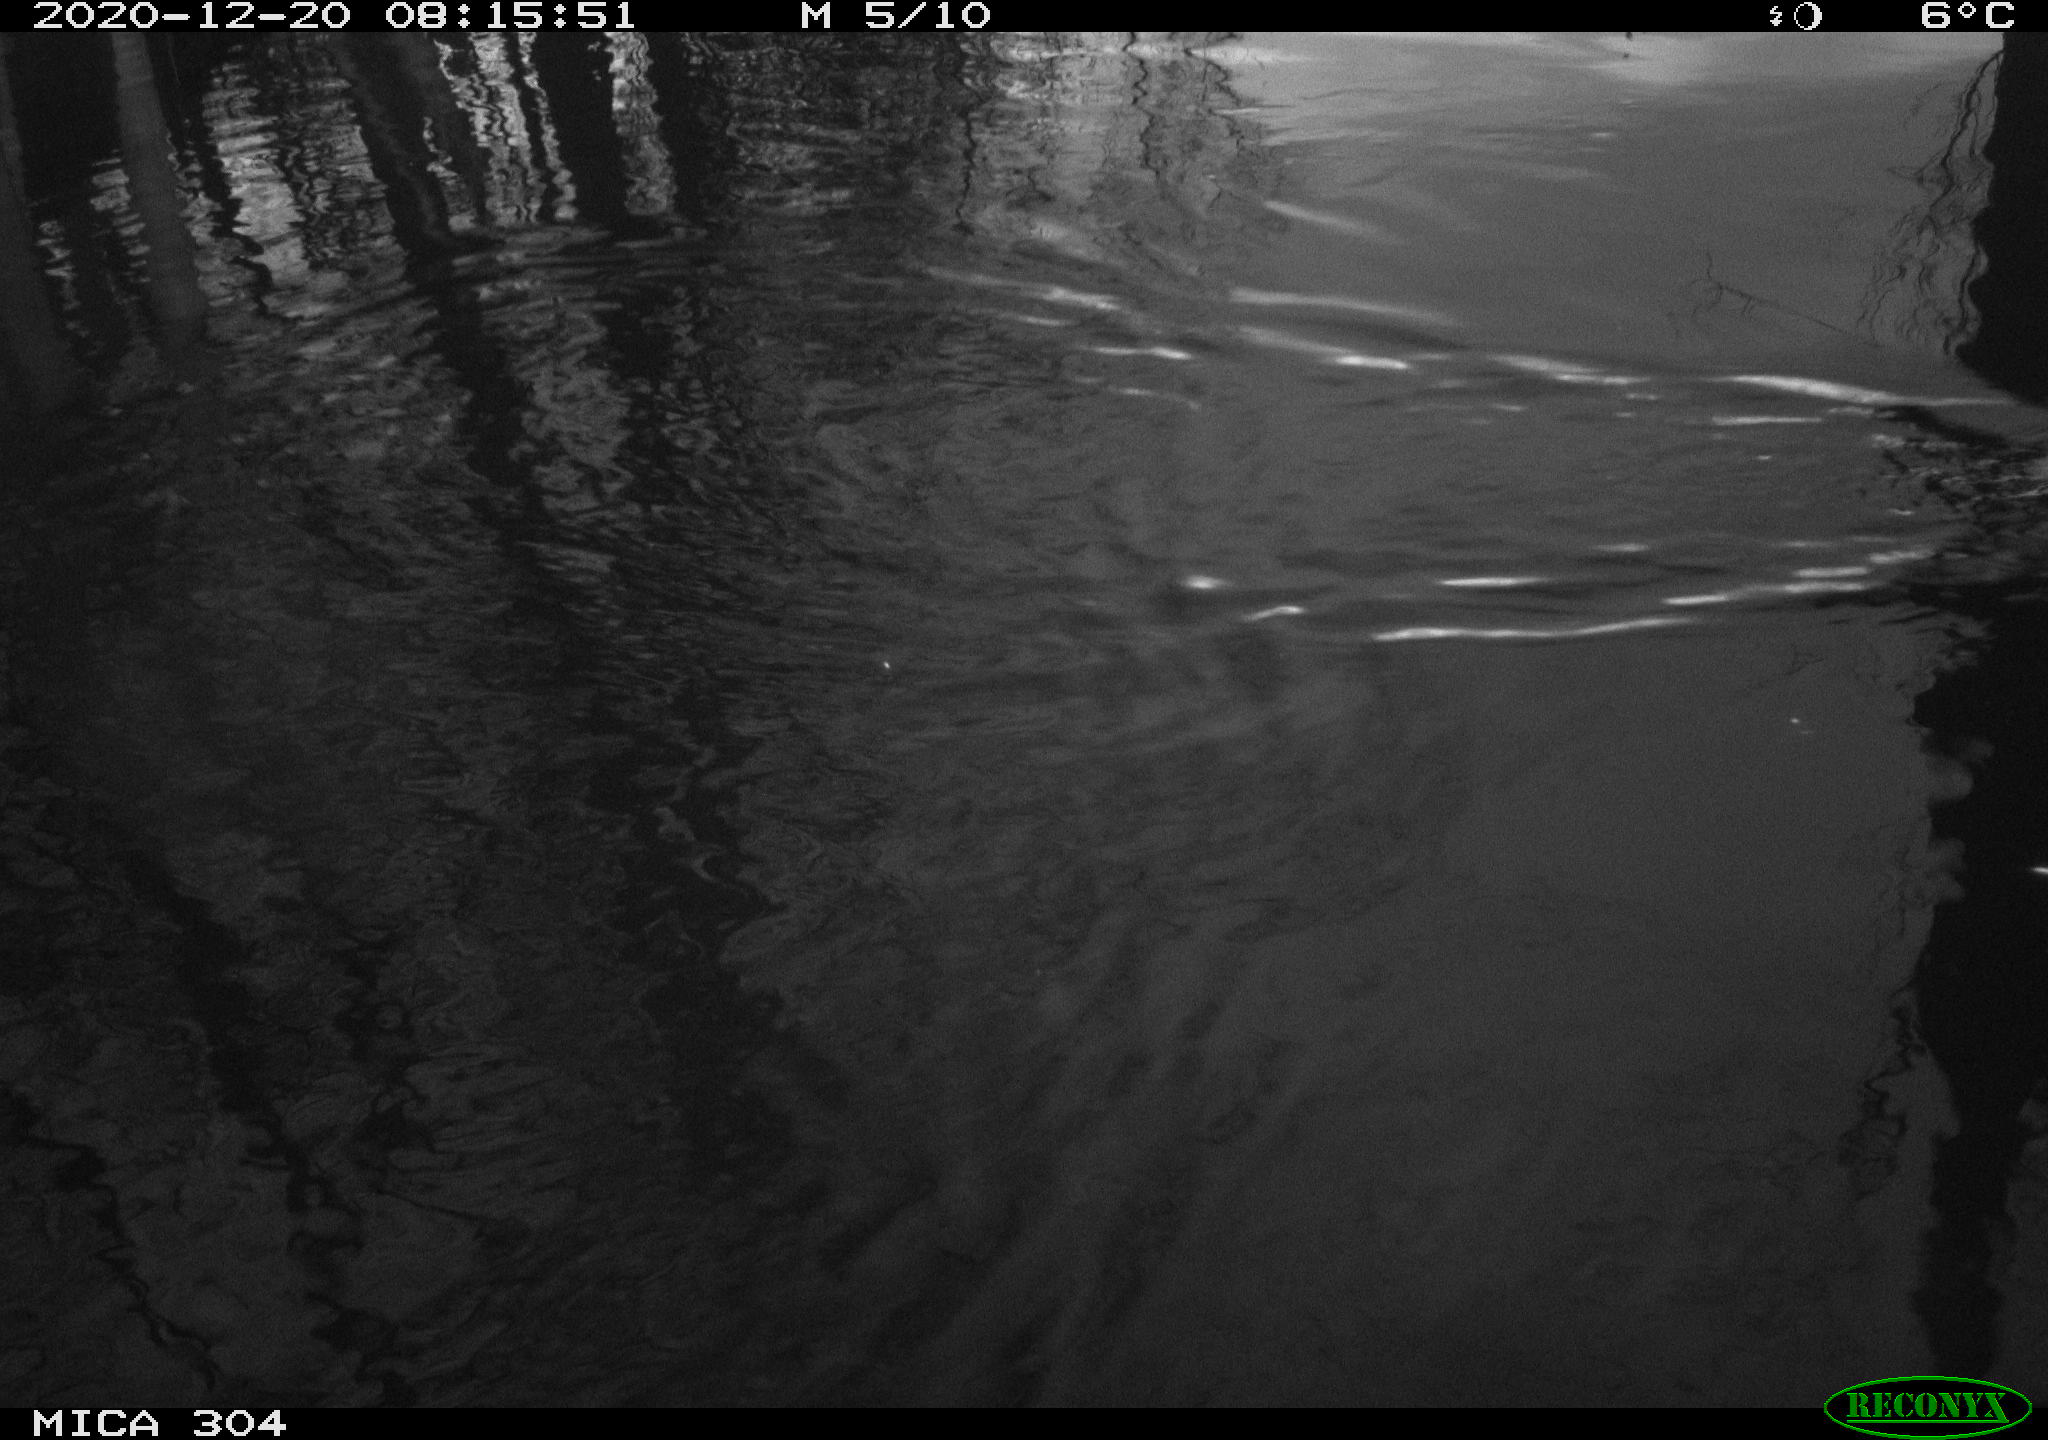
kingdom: Animalia
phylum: Chordata
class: Aves
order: Gruiformes
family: Rallidae
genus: Gallinula
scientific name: Gallinula chloropus
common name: Common moorhen
